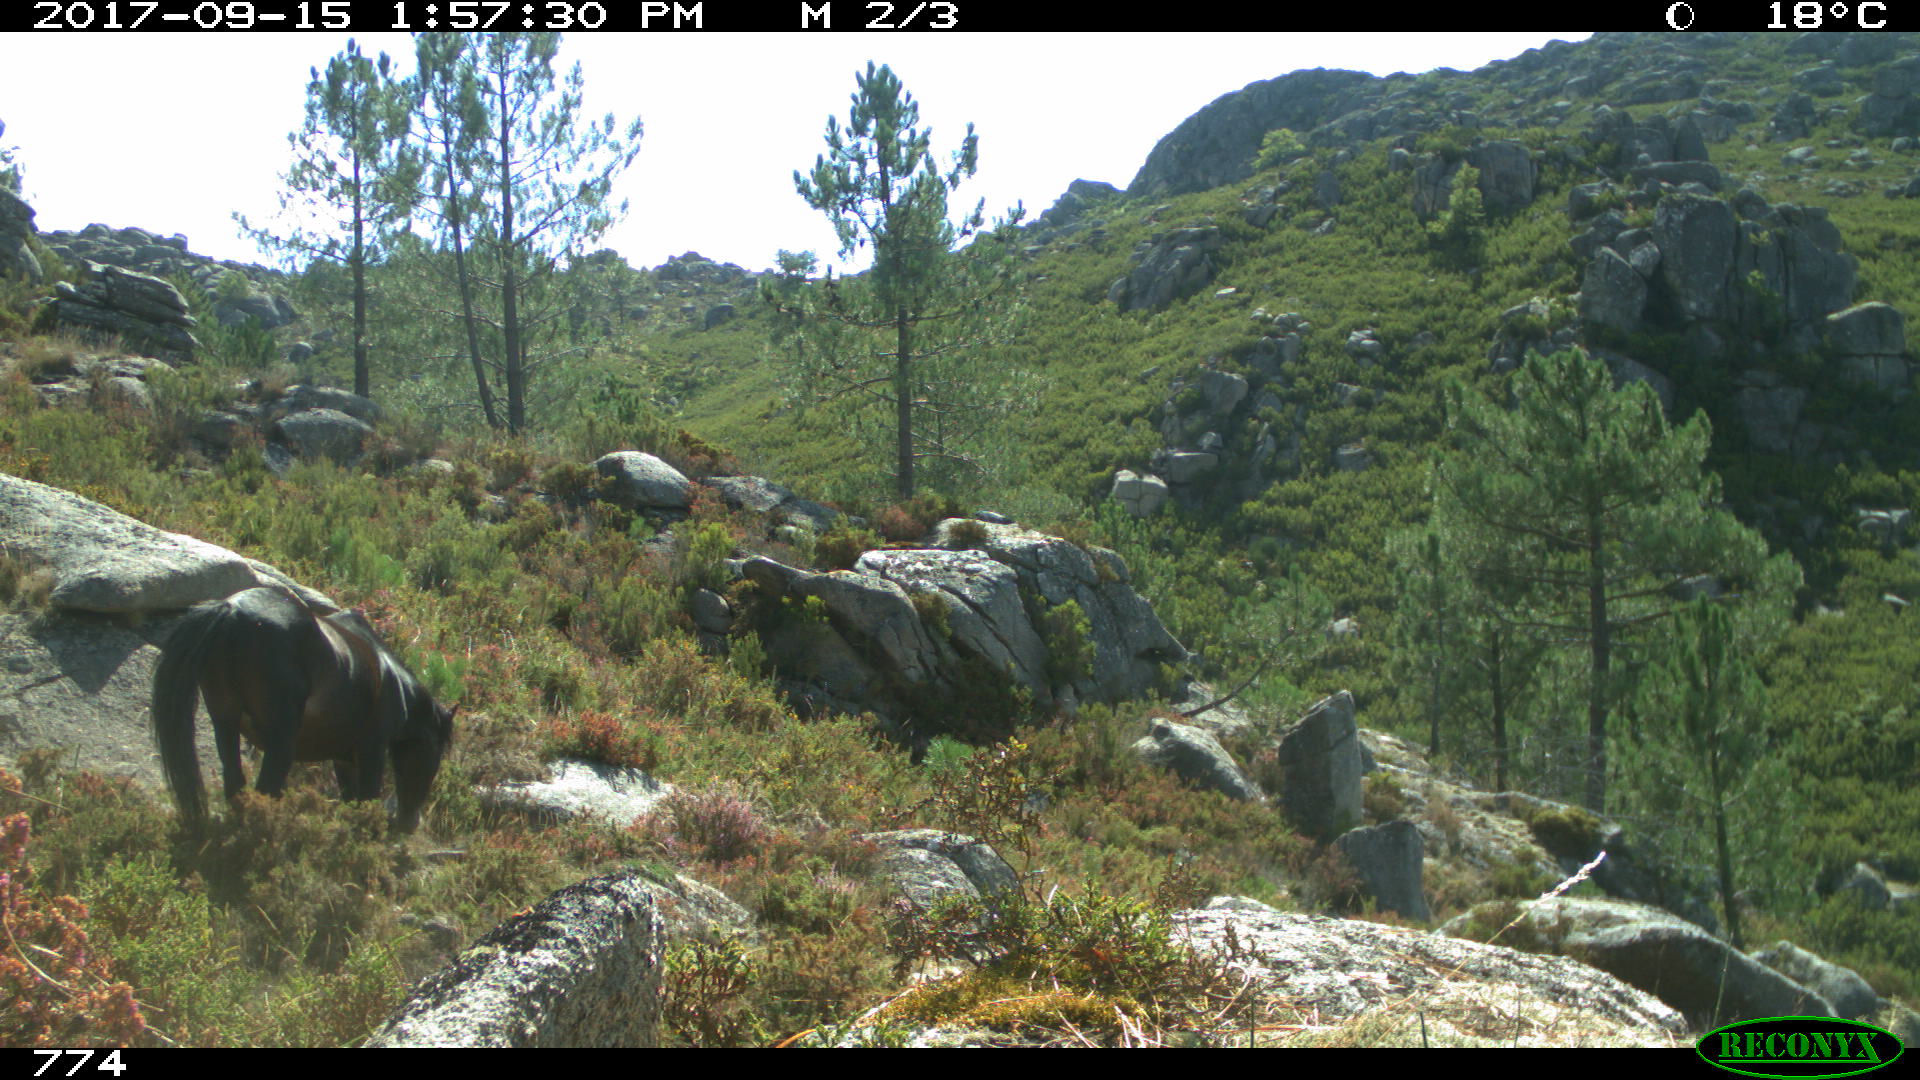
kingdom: Animalia
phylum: Chordata
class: Mammalia
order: Perissodactyla
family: Equidae
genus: Equus
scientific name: Equus caballus
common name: Horse
